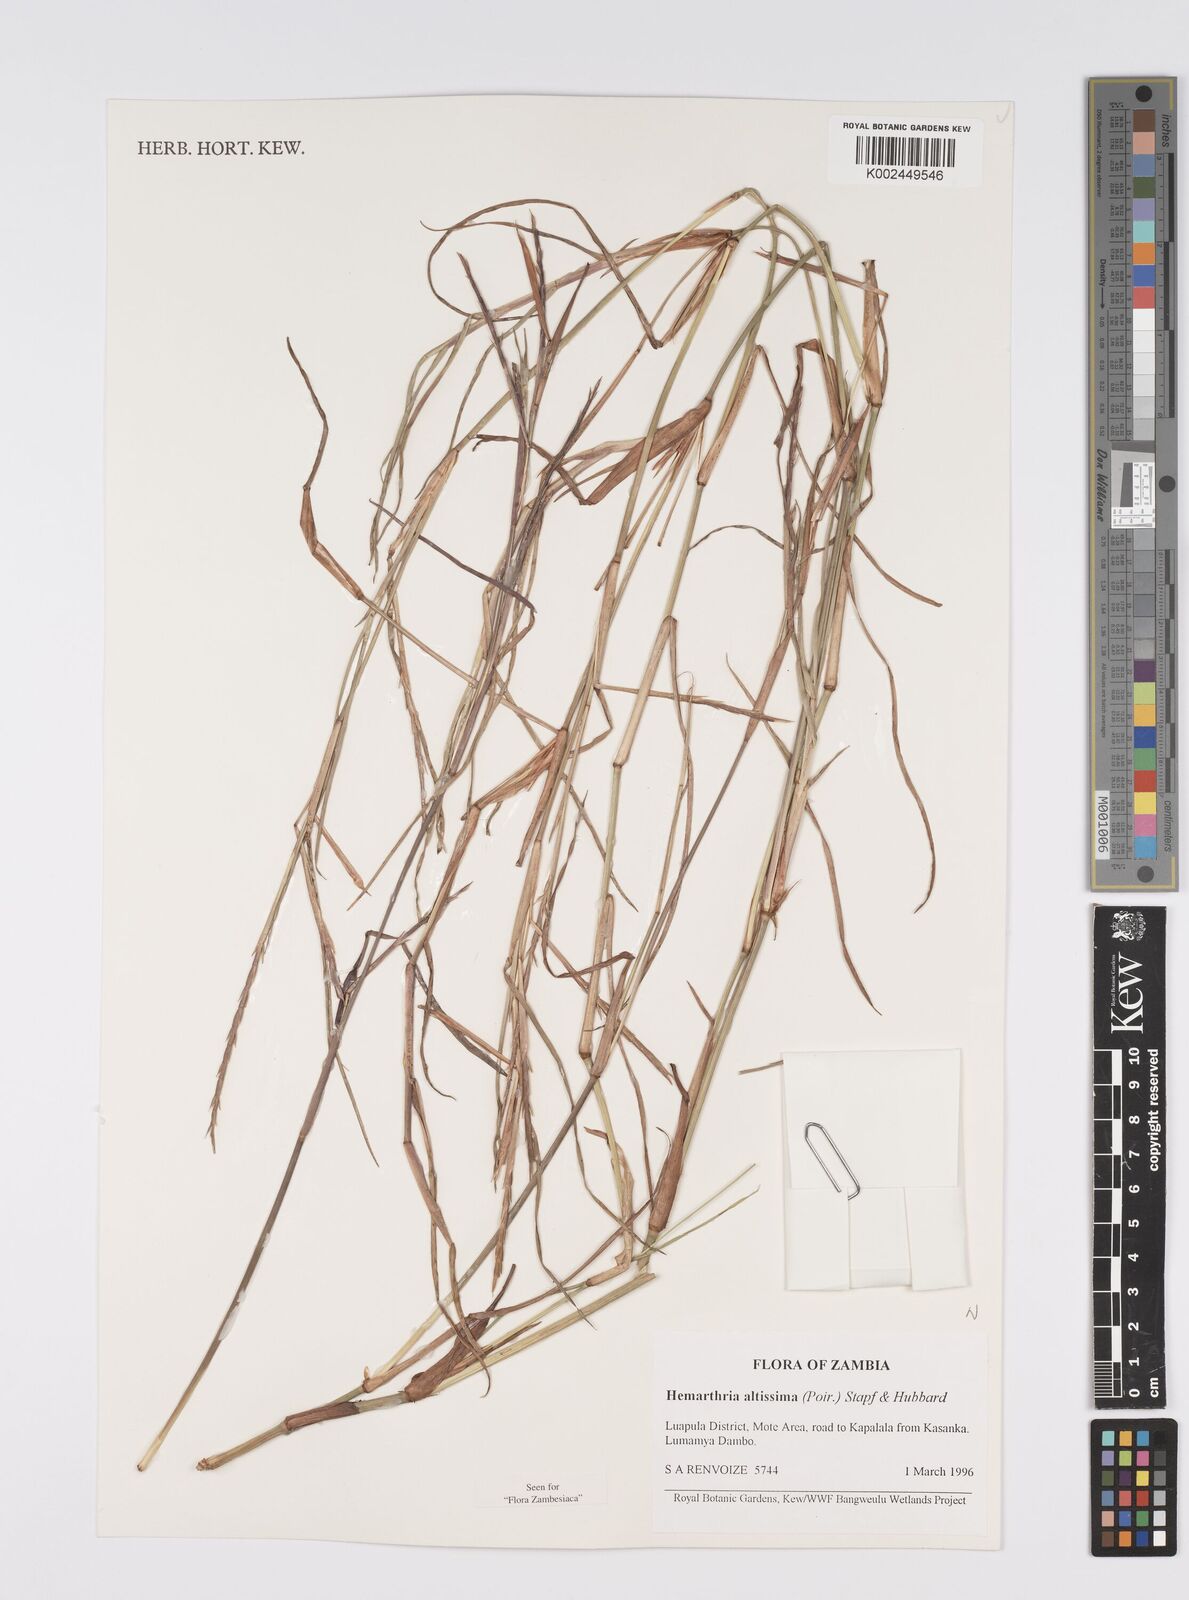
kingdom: Plantae
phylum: Tracheophyta
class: Liliopsida
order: Poales
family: Poaceae
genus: Hemarthria
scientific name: Hemarthria altissima
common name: African jointgrass
